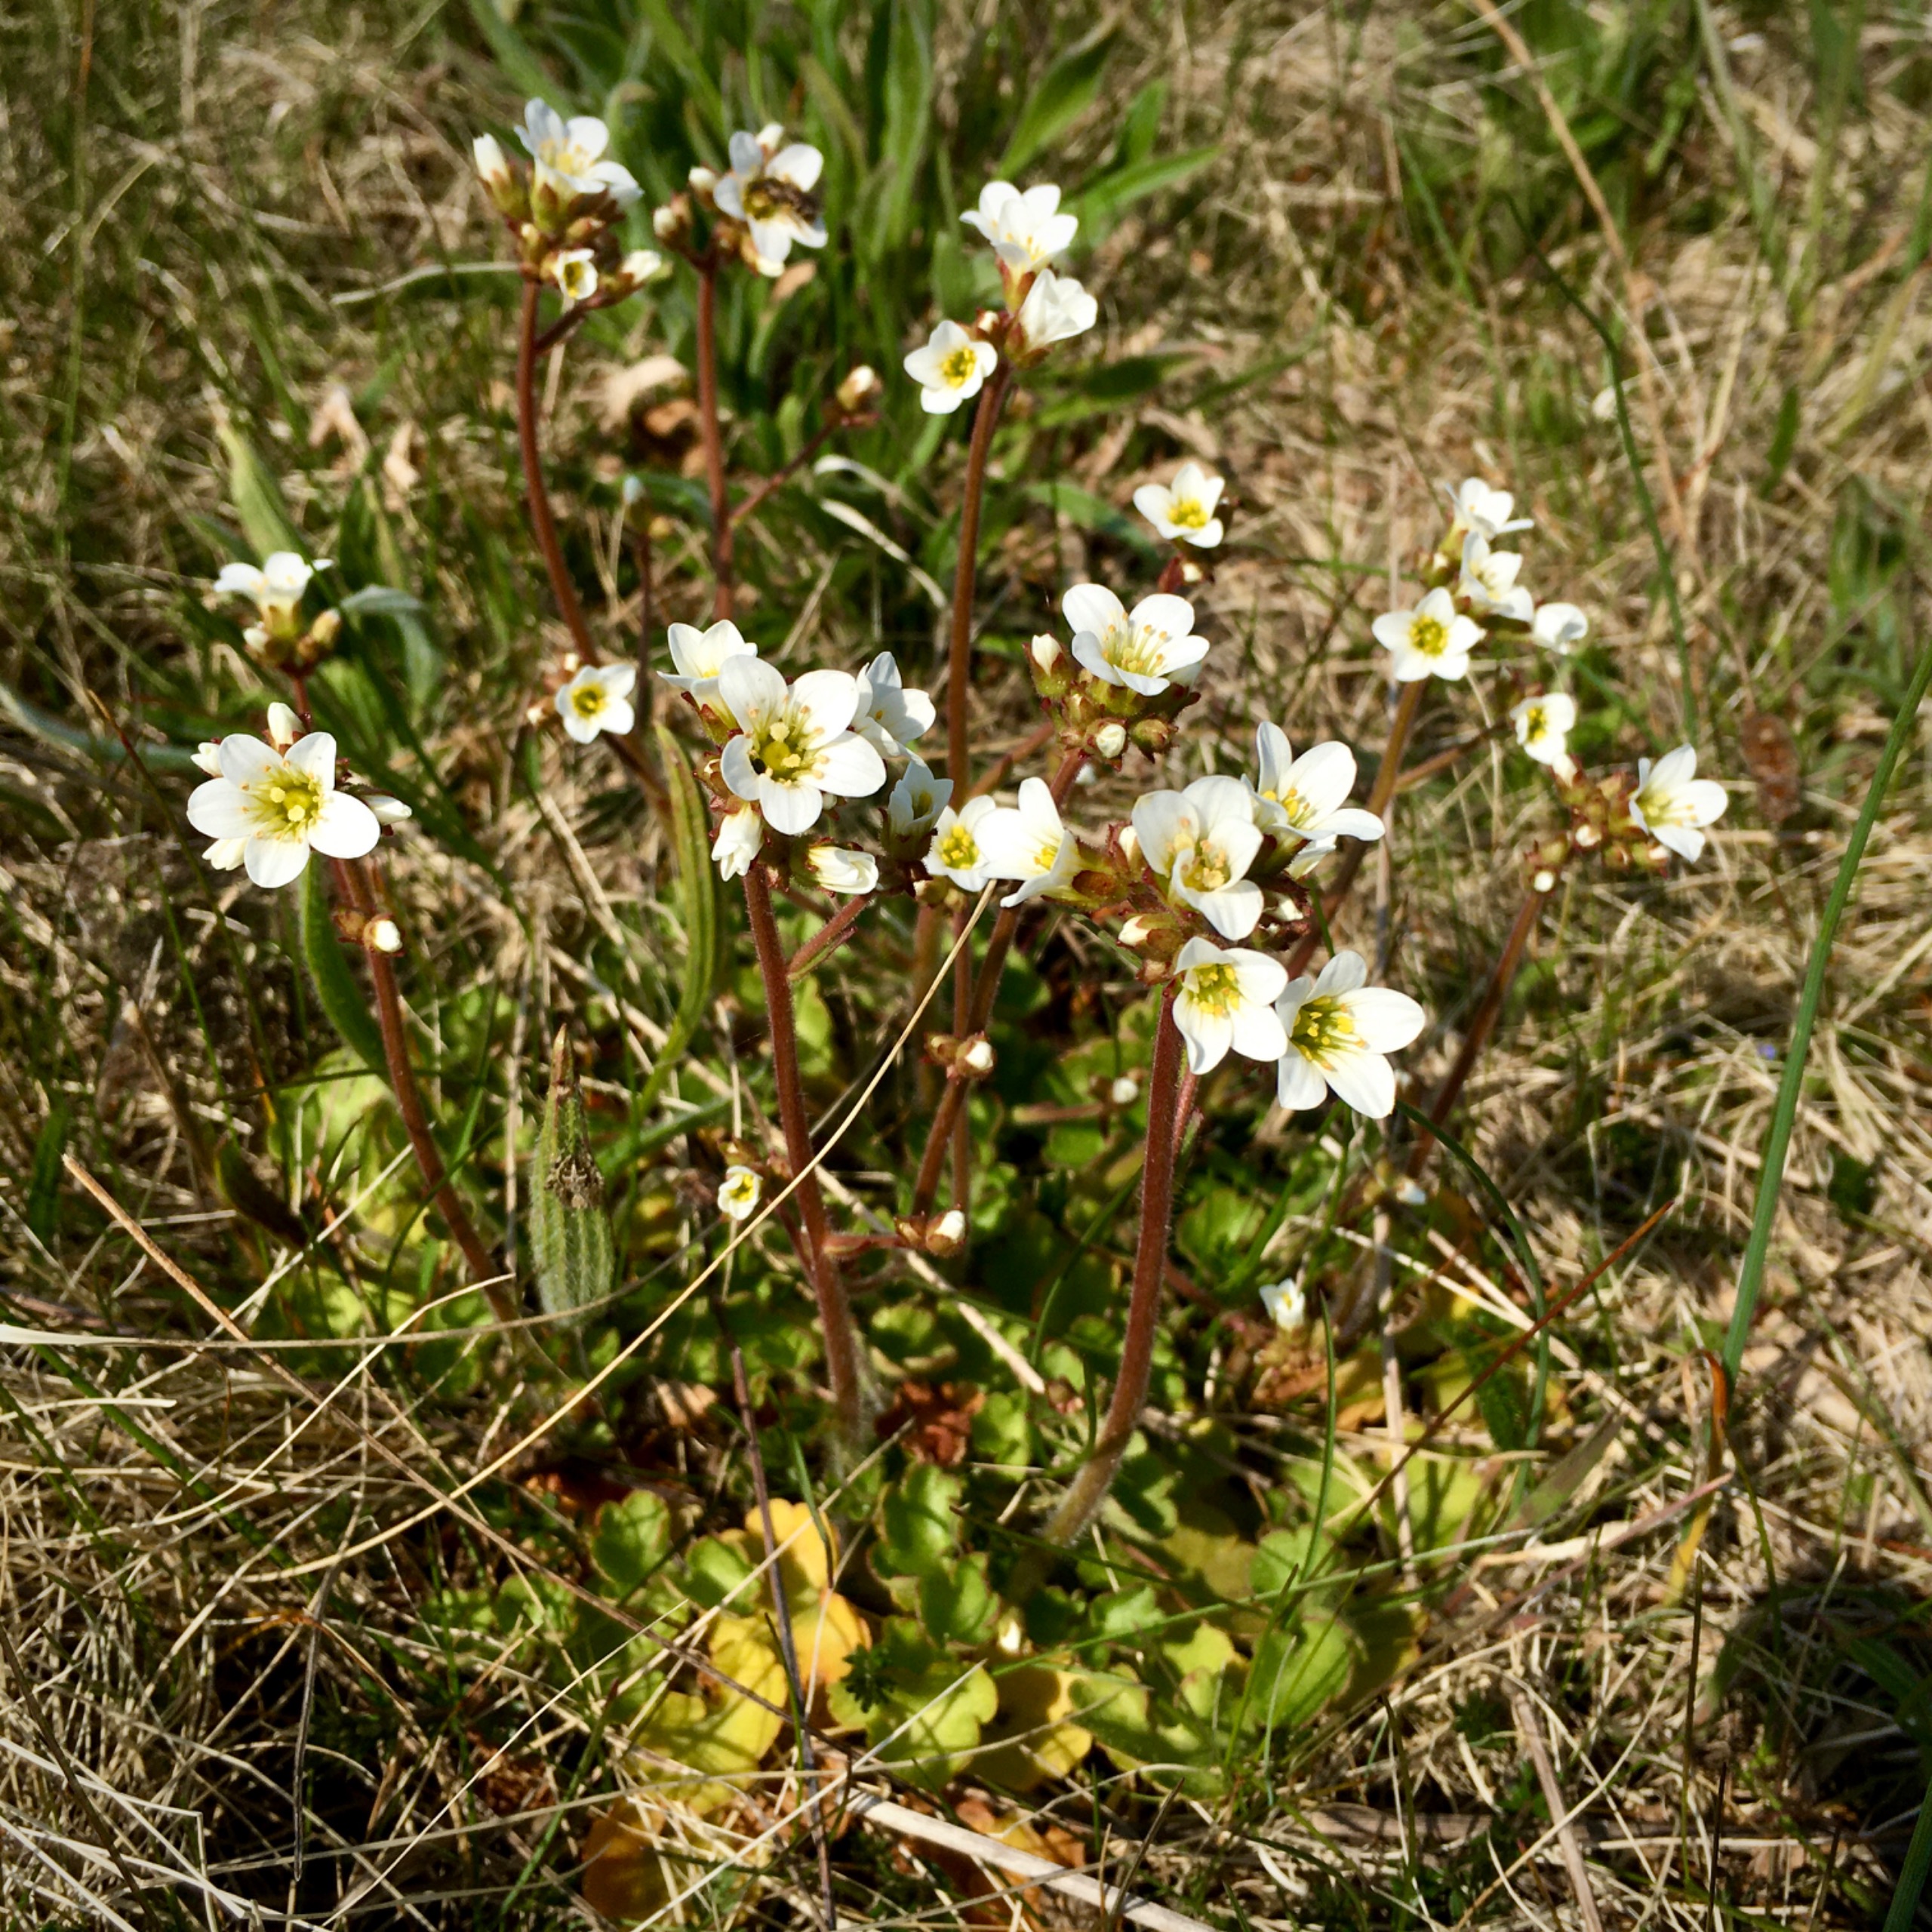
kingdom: Plantae
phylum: Tracheophyta
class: Magnoliopsida
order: Saxifragales
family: Saxifragaceae
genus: Saxifraga
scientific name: Saxifraga granulata
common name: Kornet stenbræk
